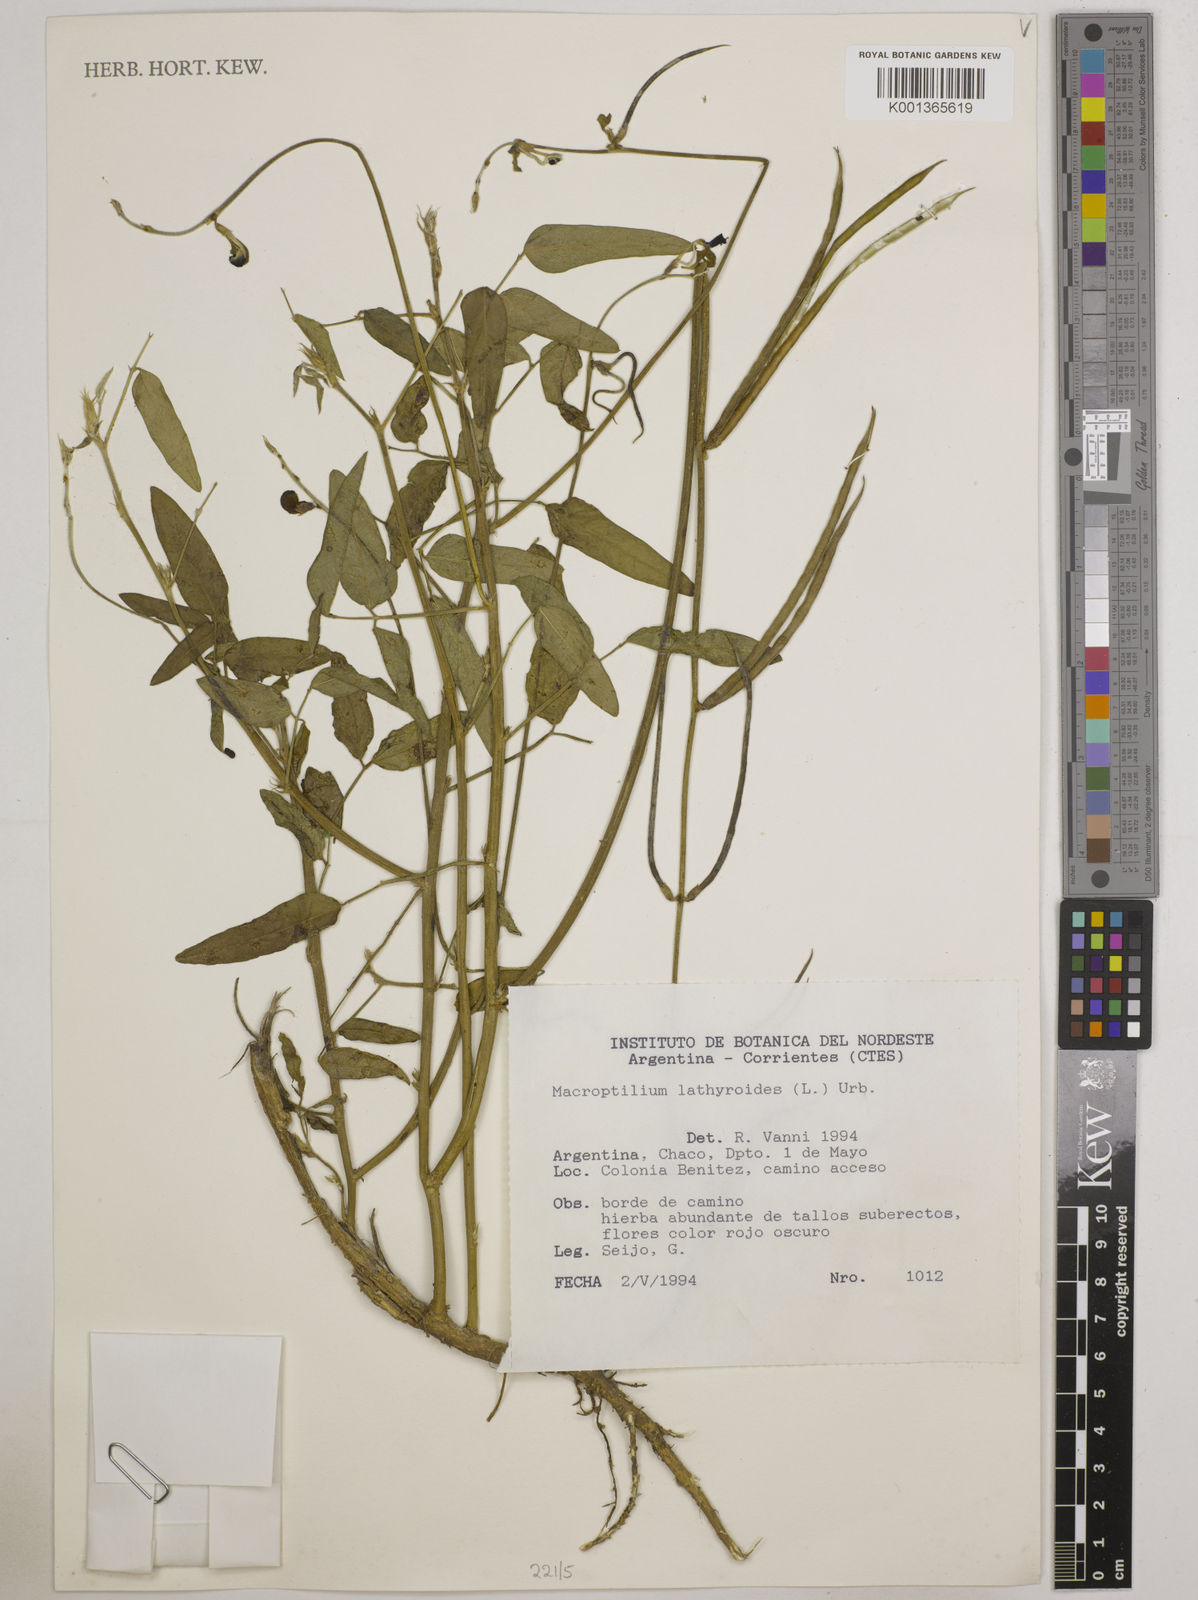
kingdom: Plantae
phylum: Tracheophyta
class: Magnoliopsida
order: Fabales
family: Fabaceae
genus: Macroptilium
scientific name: Macroptilium lathyroides
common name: Wild bushbean
